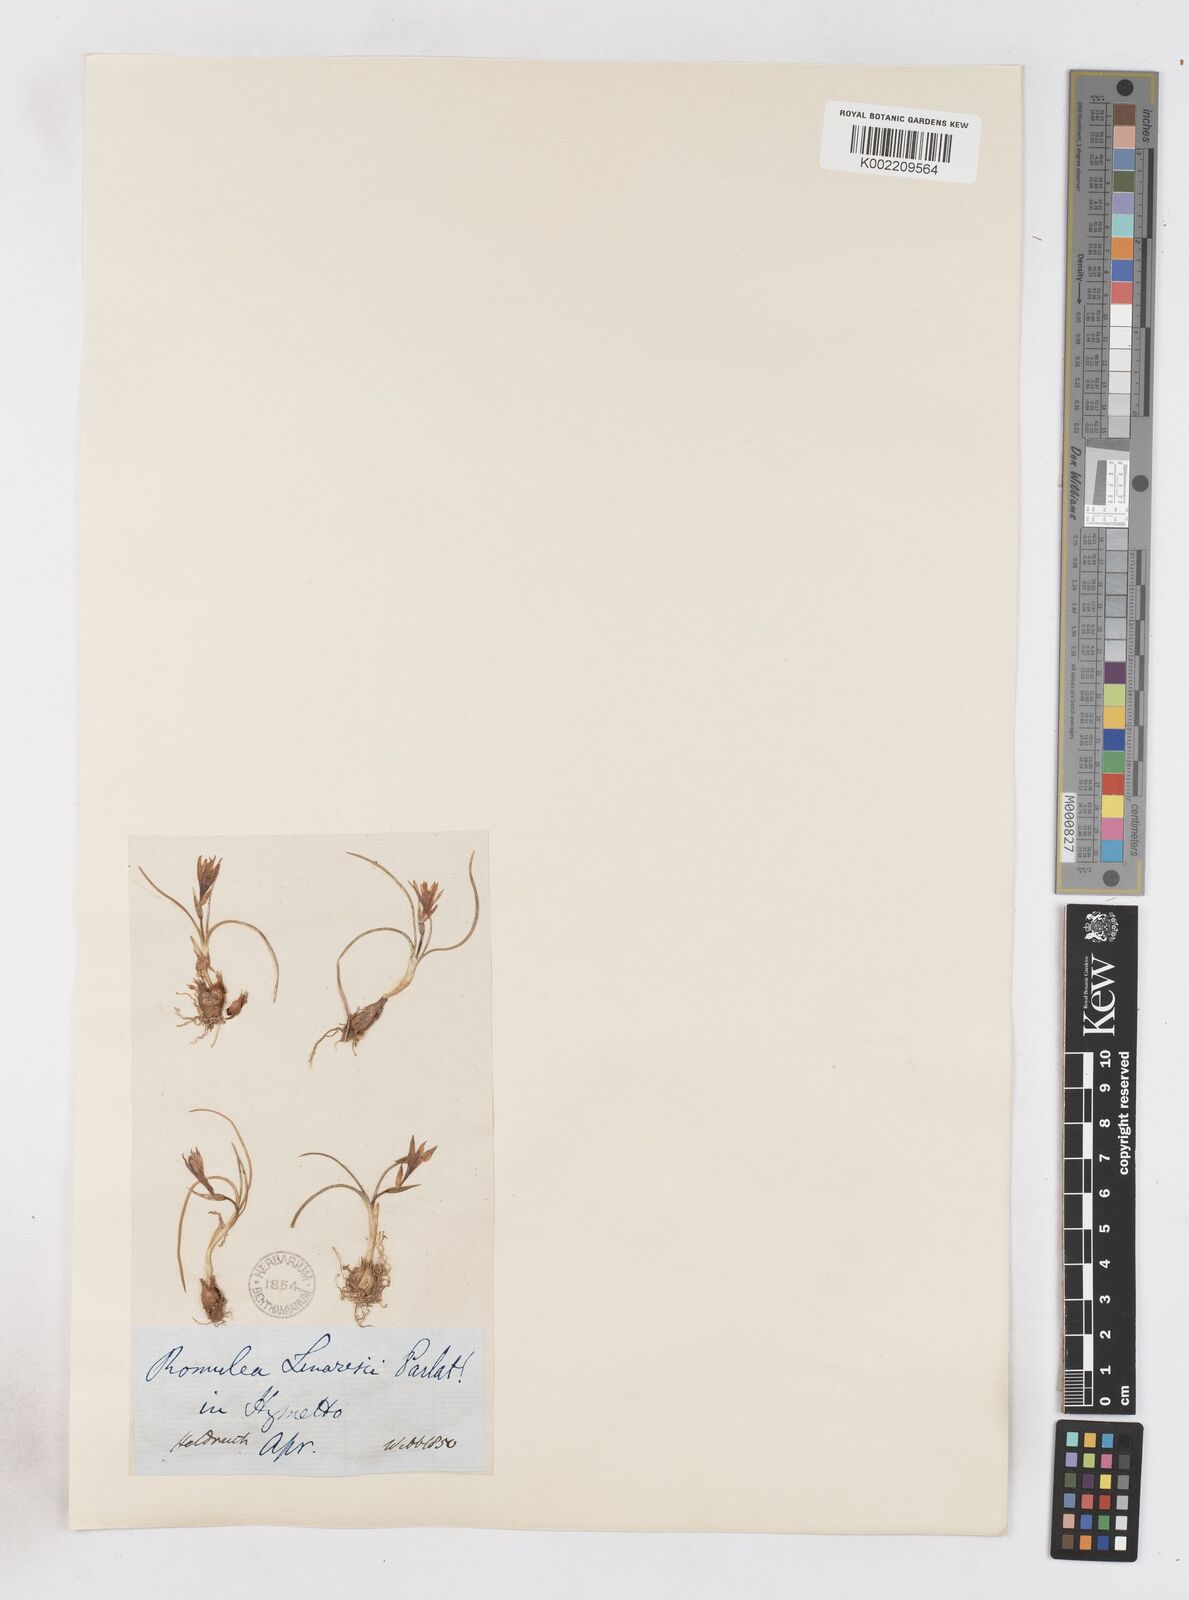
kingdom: Plantae
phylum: Tracheophyta
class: Liliopsida
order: Asparagales
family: Iridaceae
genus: Romulea
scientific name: Romulea linaresii
